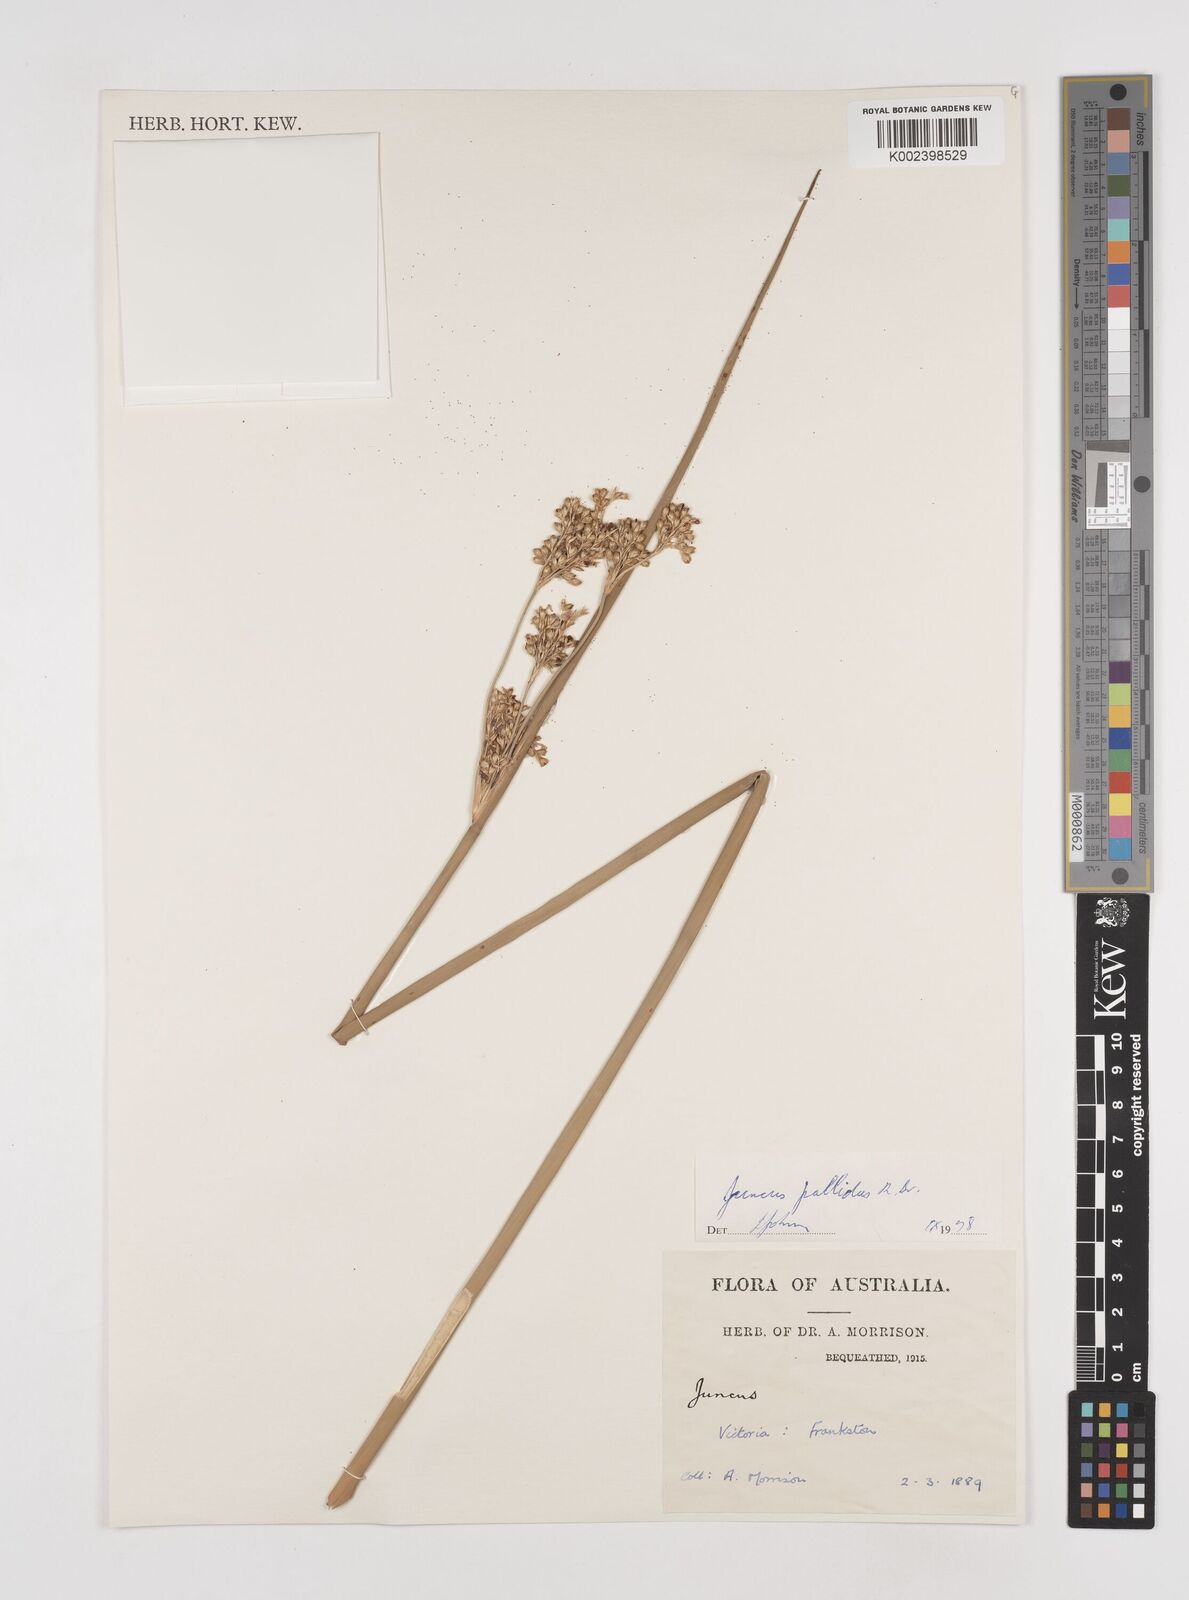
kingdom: Plantae
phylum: Tracheophyta
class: Liliopsida
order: Poales
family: Juncaceae
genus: Juncus
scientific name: Juncus pallidus
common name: Great soft-rush
